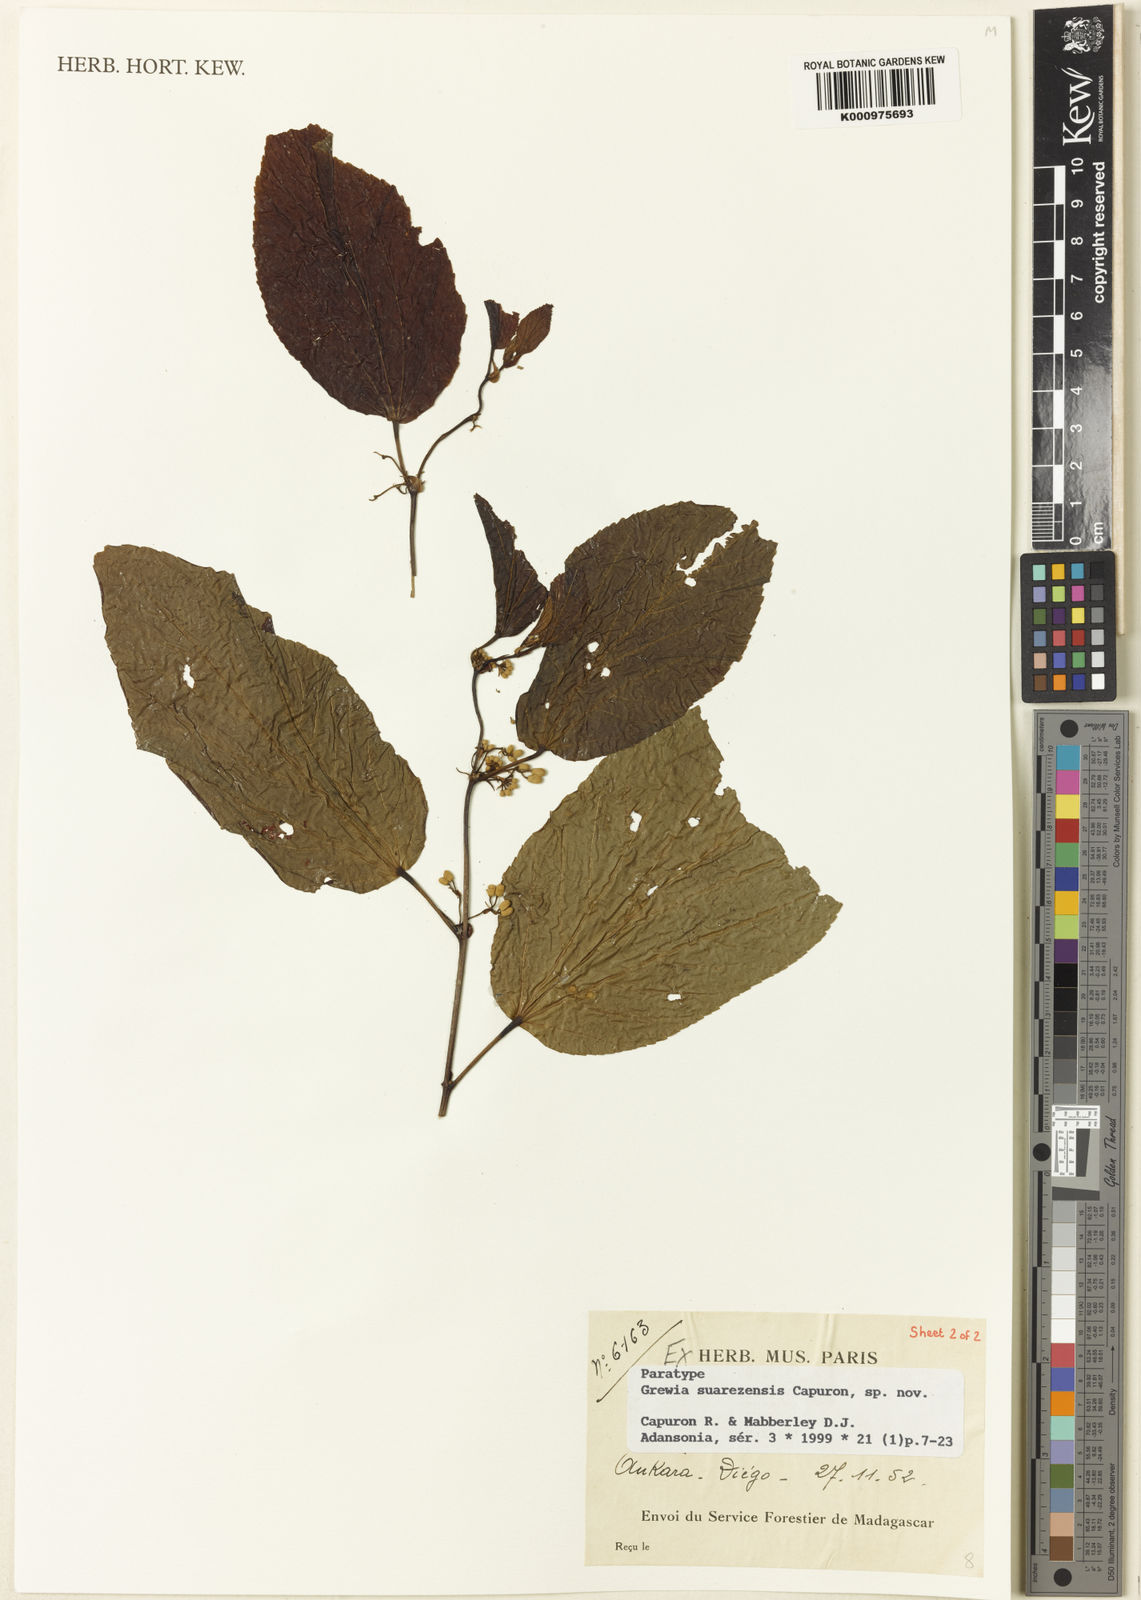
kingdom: Plantae
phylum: Tracheophyta
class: Magnoliopsida
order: Malvales
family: Malvaceae
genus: Grewia
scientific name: Grewia suarezensis
